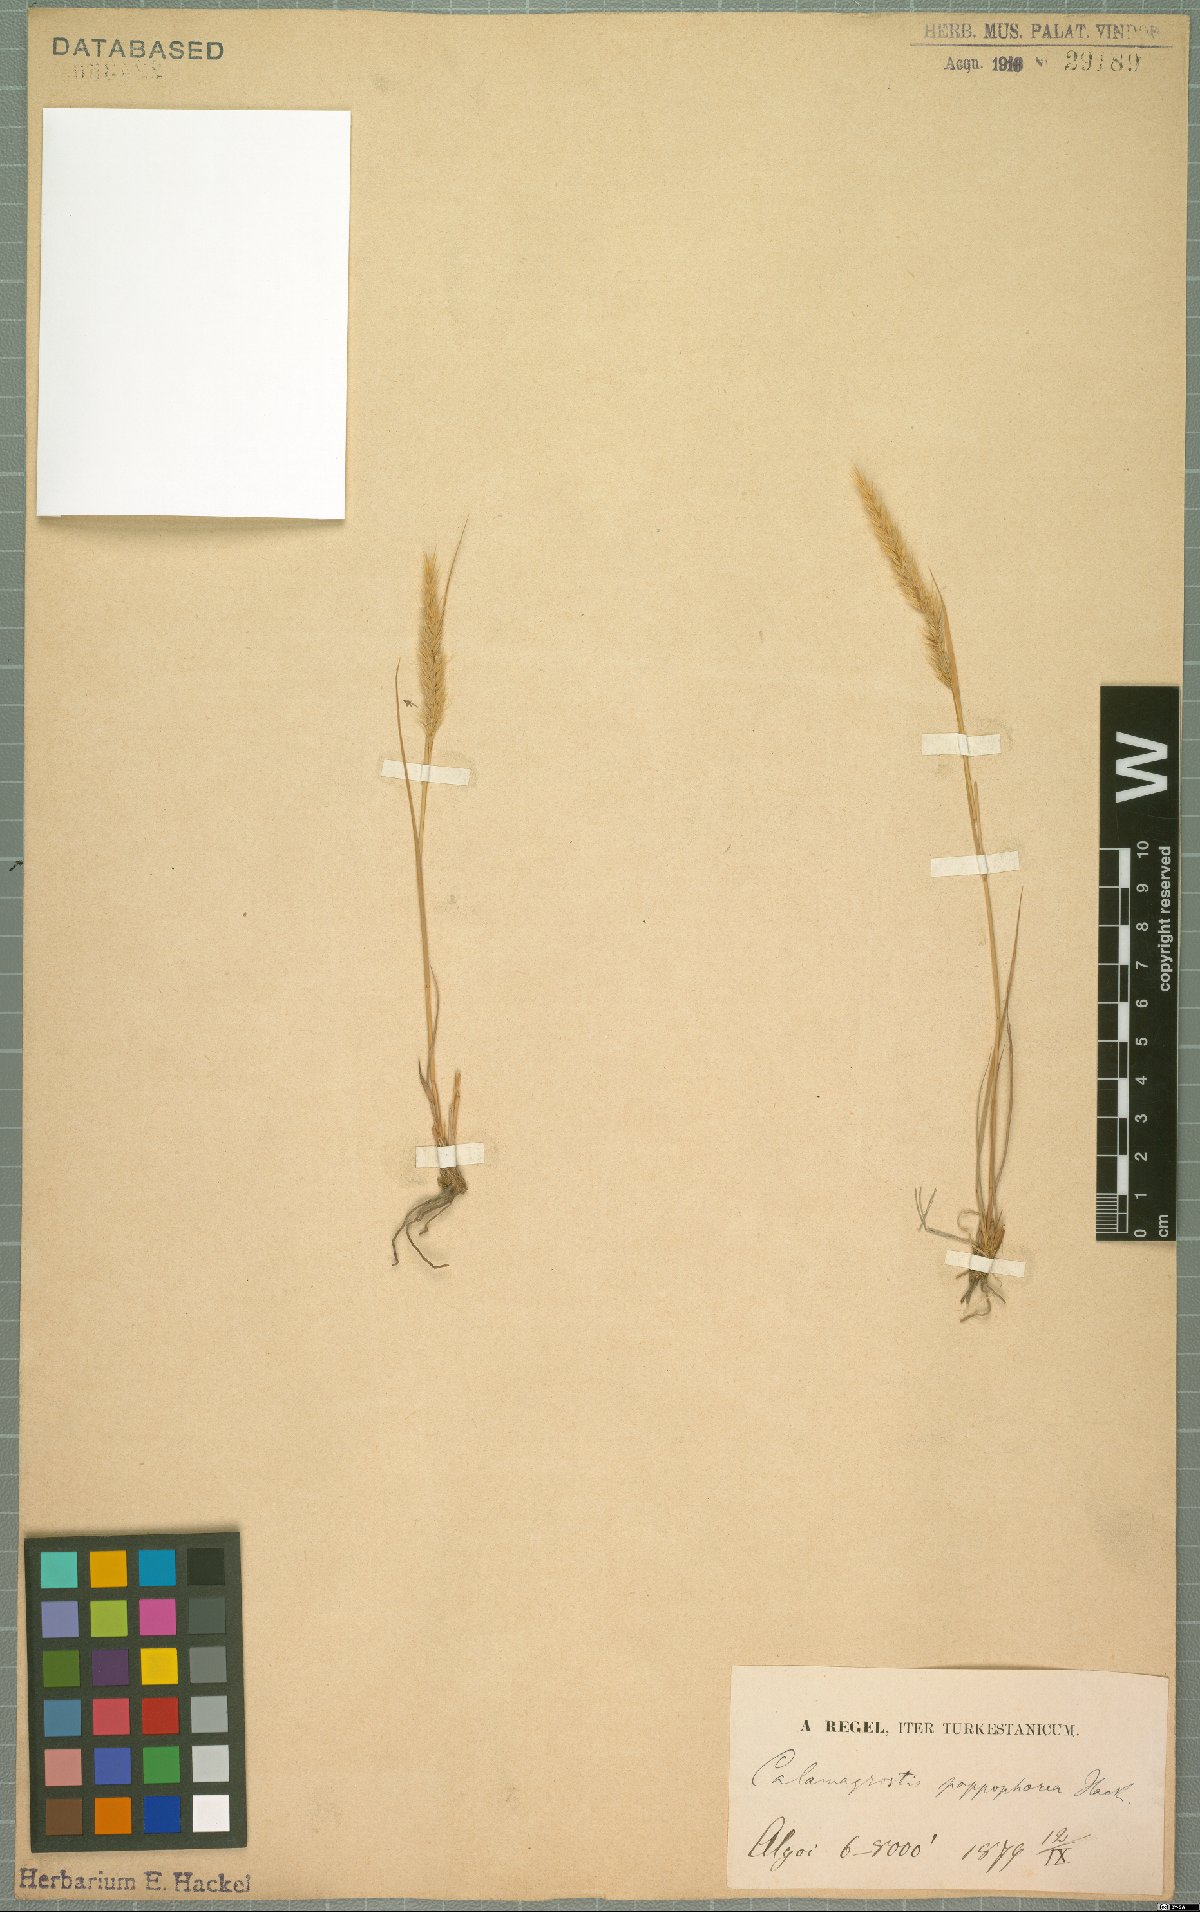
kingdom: Plantae
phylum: Tracheophyta
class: Liliopsida
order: Poales
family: Poaceae
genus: Pappagrostis
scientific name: Pappagrostis pappophorea
